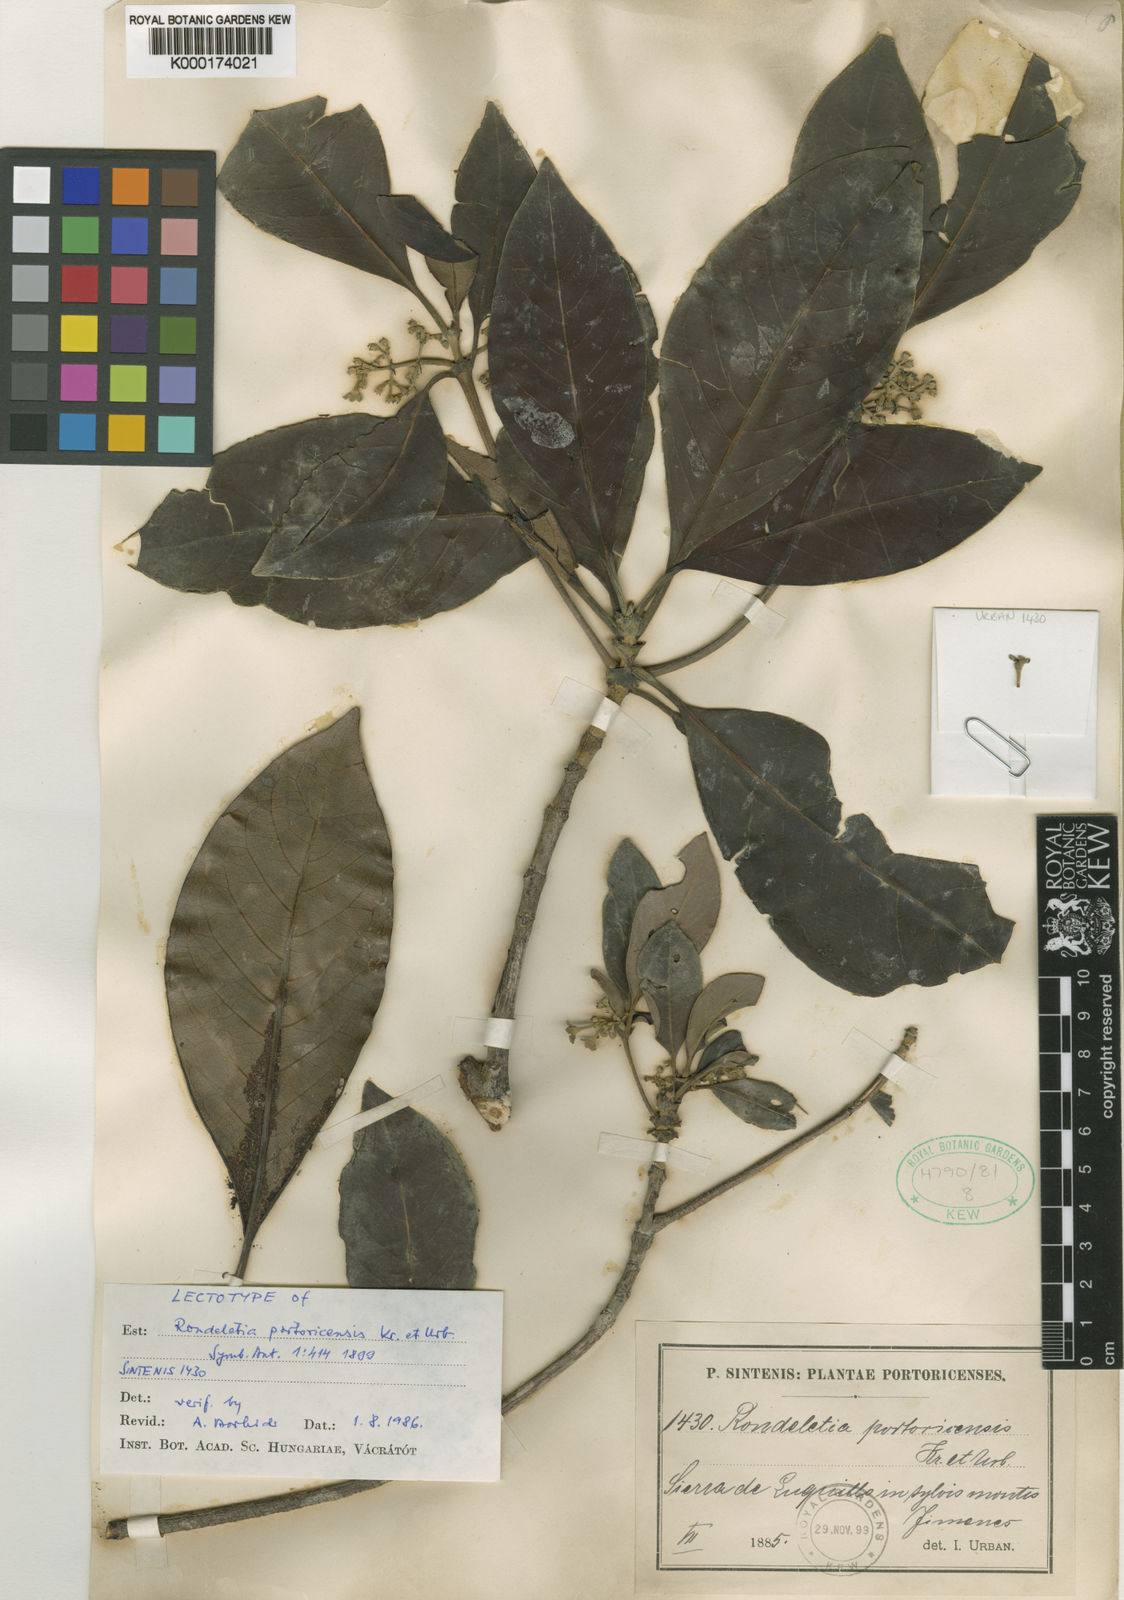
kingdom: Plantae
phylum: Tracheophyta
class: Magnoliopsida
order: Gentianales
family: Rubiaceae
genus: Rondeletia
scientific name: Rondeletia portoricensis
